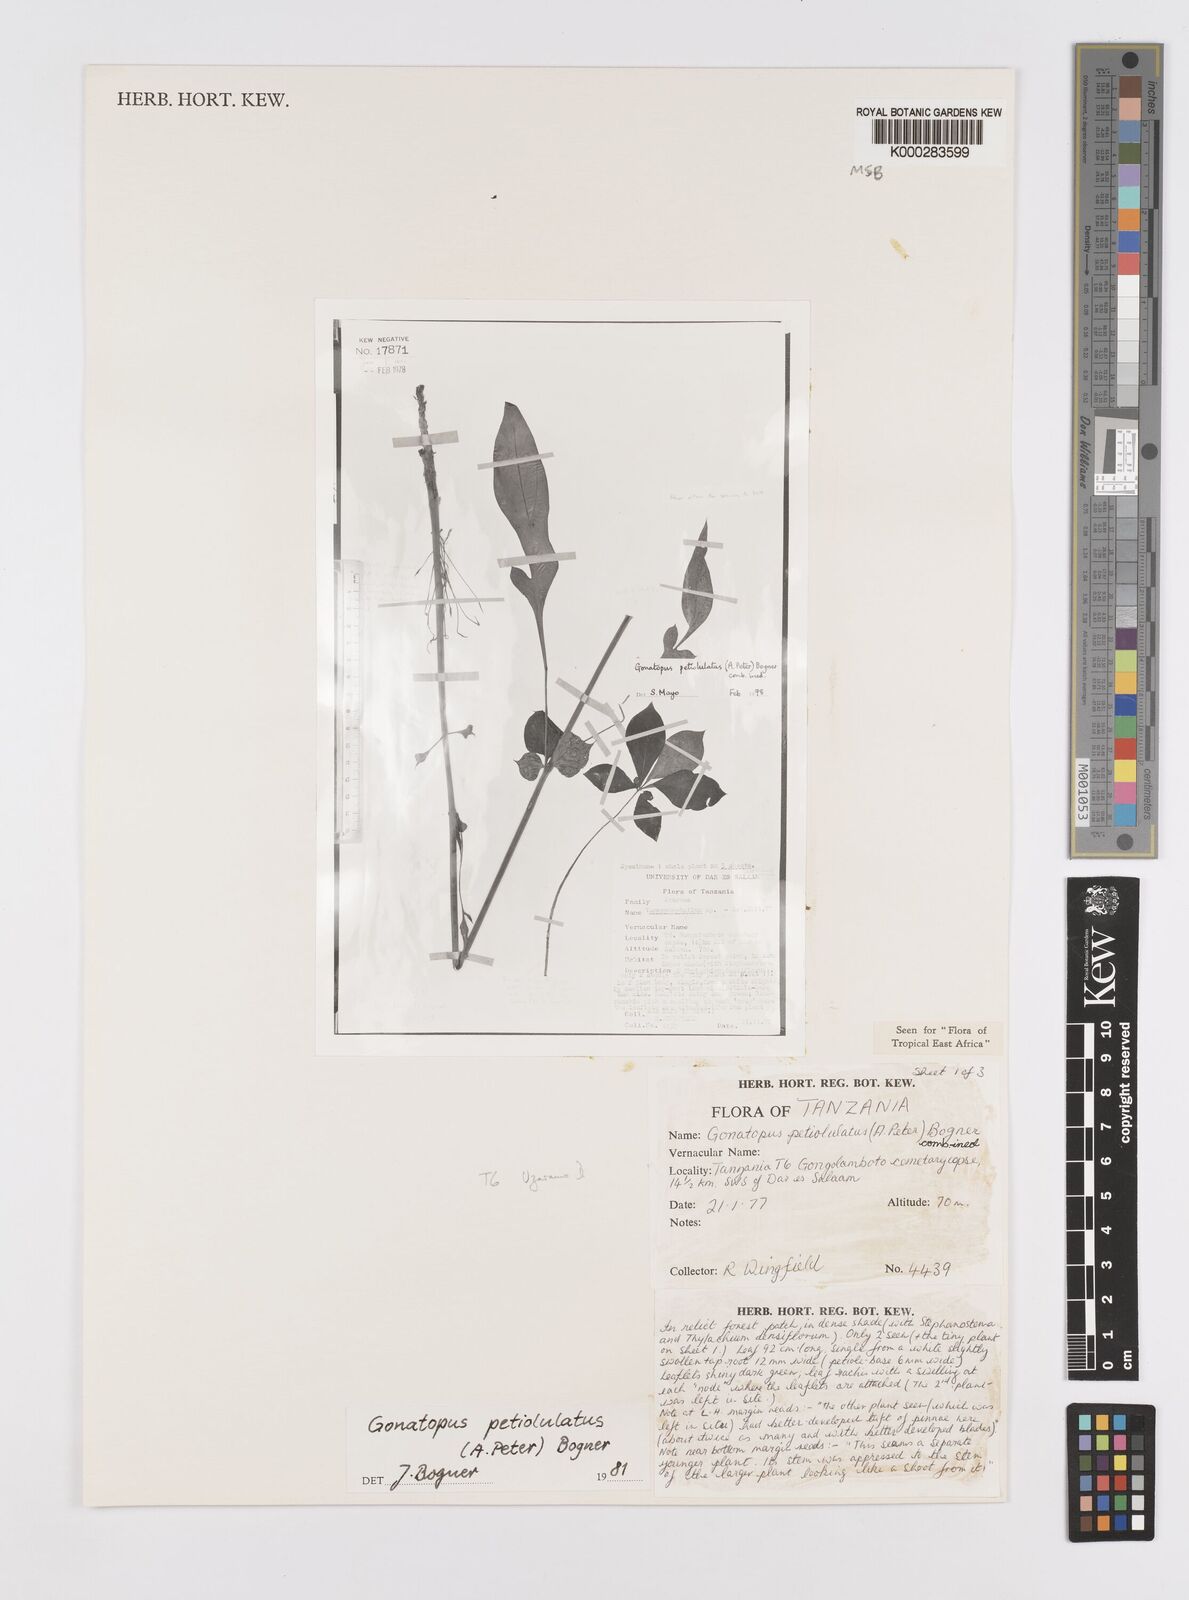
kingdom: Plantae
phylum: Tracheophyta
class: Liliopsida
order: Alismatales
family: Araceae
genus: Gonatopus
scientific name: Gonatopus petiolulatus
